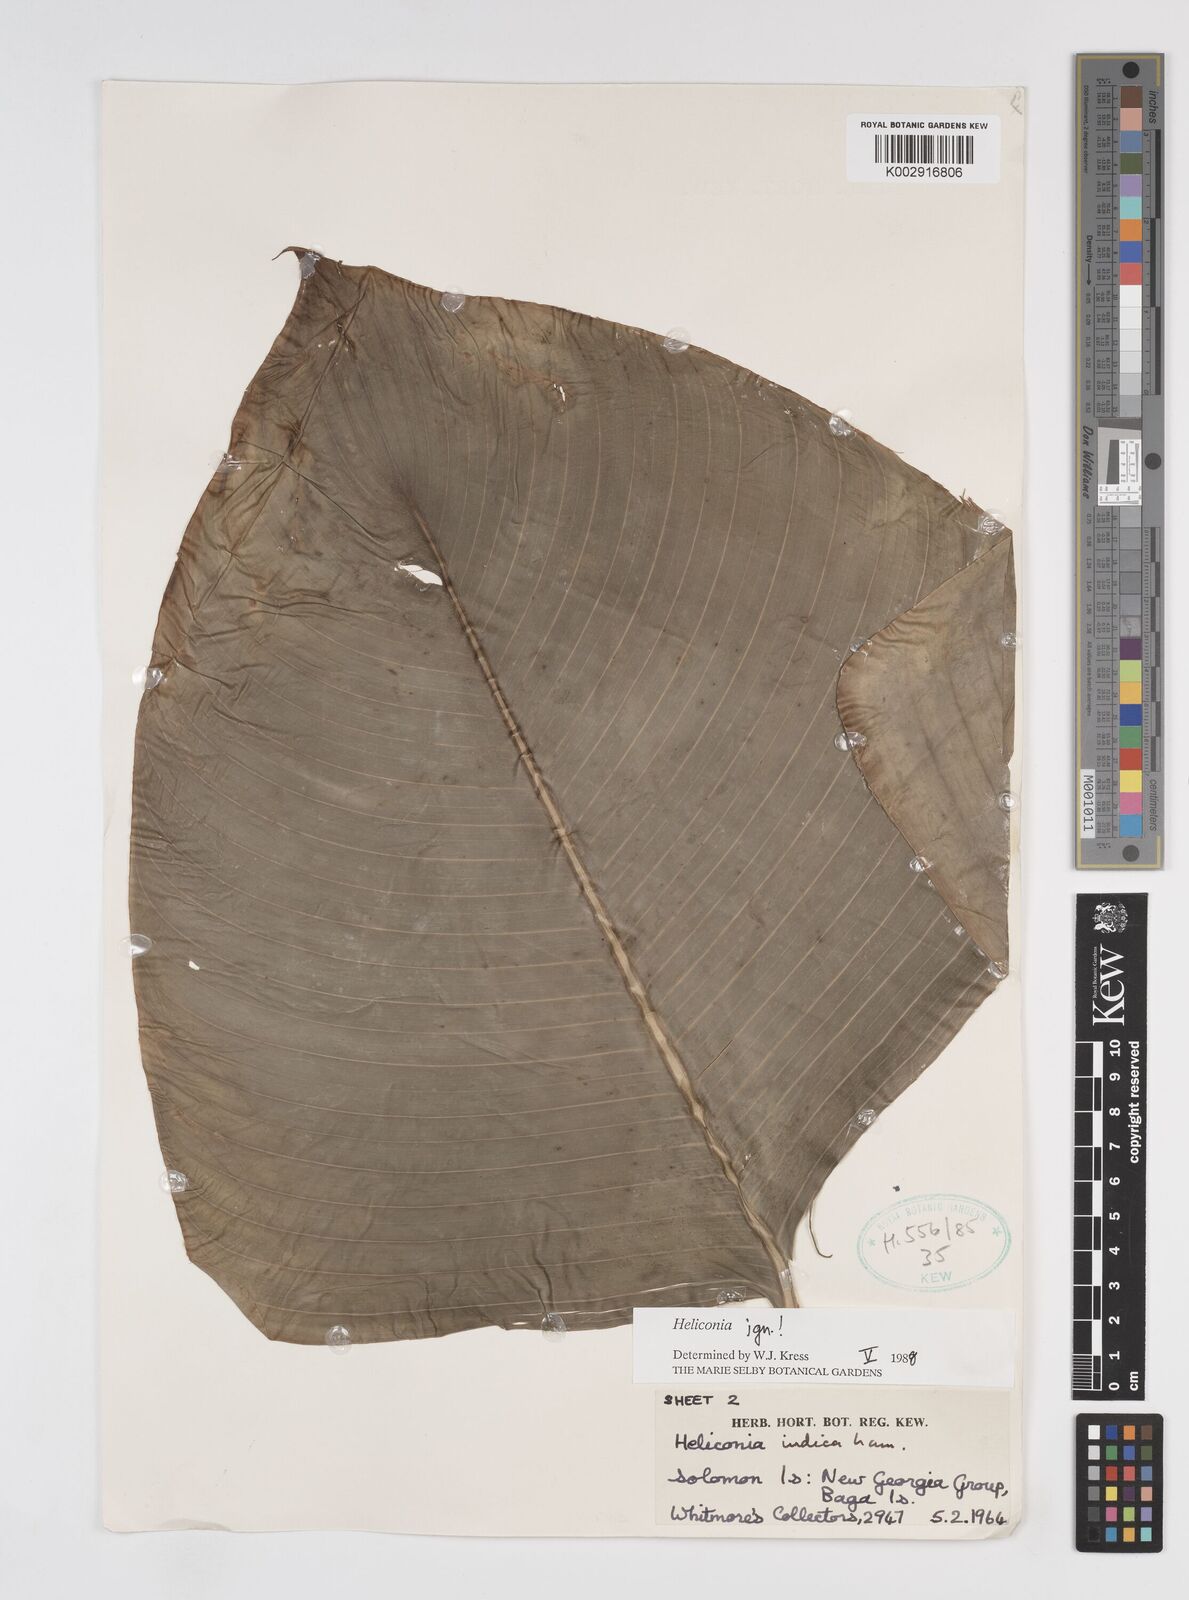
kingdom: Plantae
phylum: Tracheophyta
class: Liliopsida
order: Zingiberales
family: Heliconiaceae
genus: Heliconia
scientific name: Heliconia
